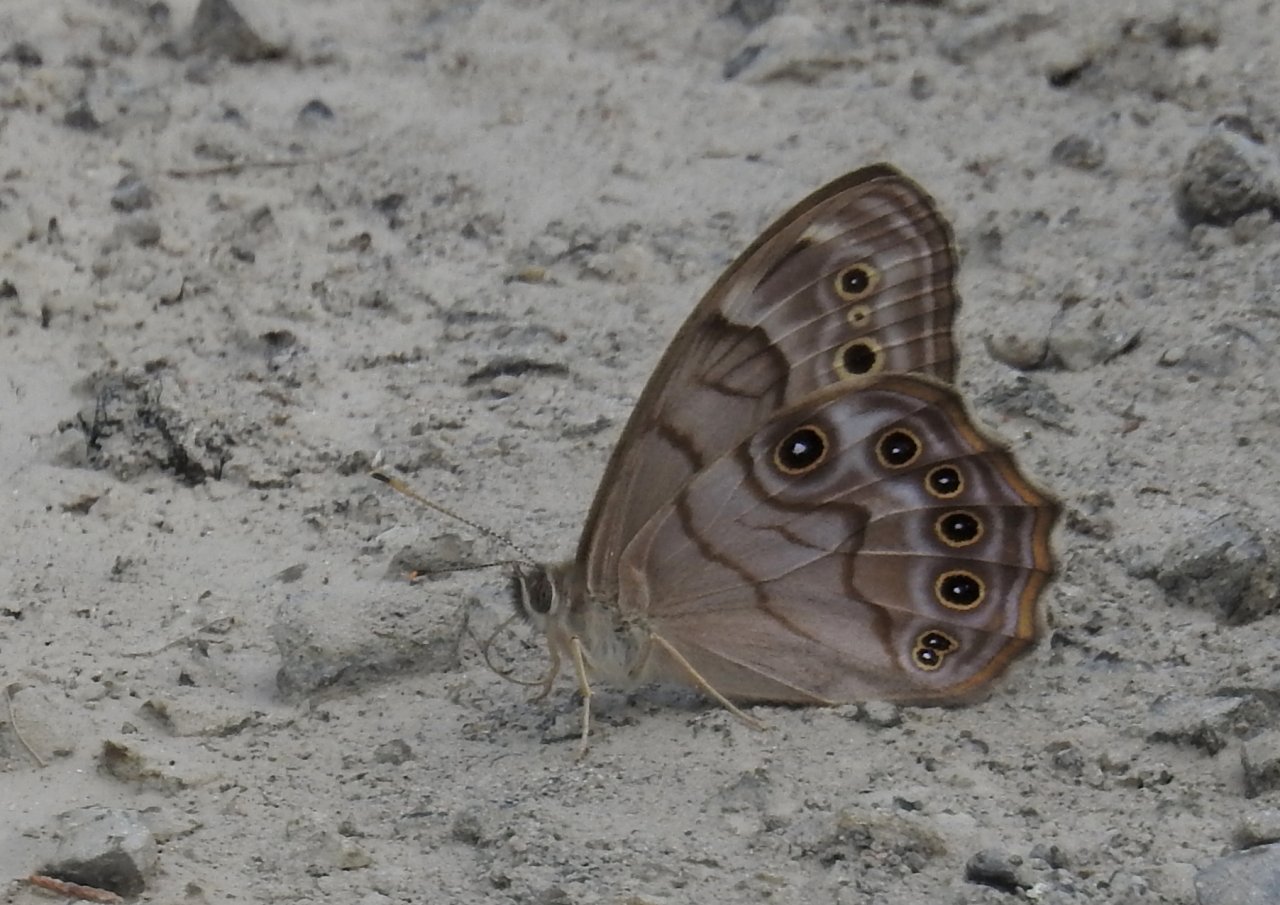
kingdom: Animalia
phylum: Arthropoda
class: Insecta
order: Lepidoptera
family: Nymphalidae
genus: Lethe
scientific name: Lethe anthedon
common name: Northern Pearly-Eye
